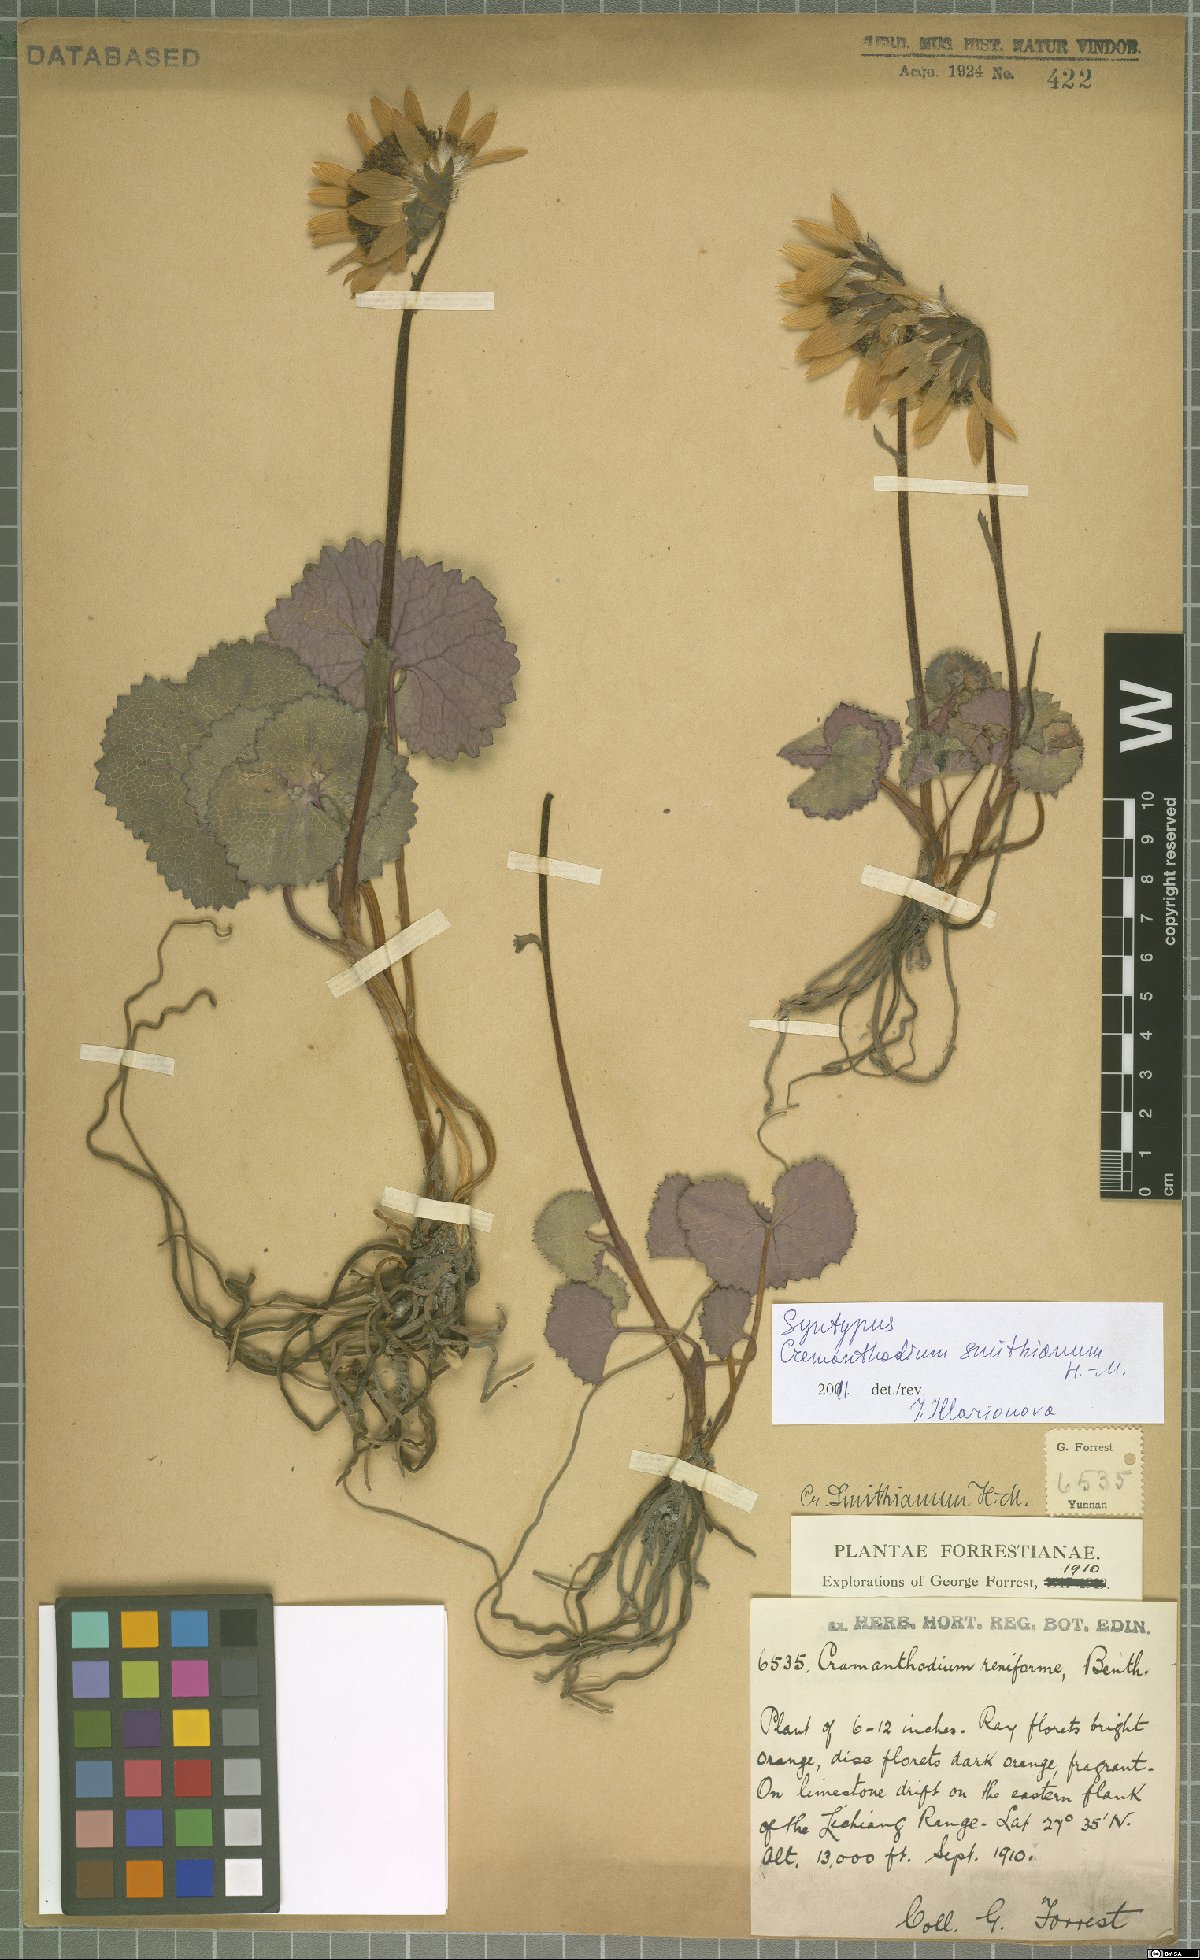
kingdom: Plantae
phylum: Tracheophyta
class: Magnoliopsida
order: Asterales
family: Asteraceae
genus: Cremanthodium
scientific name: Cremanthodium smithianum
